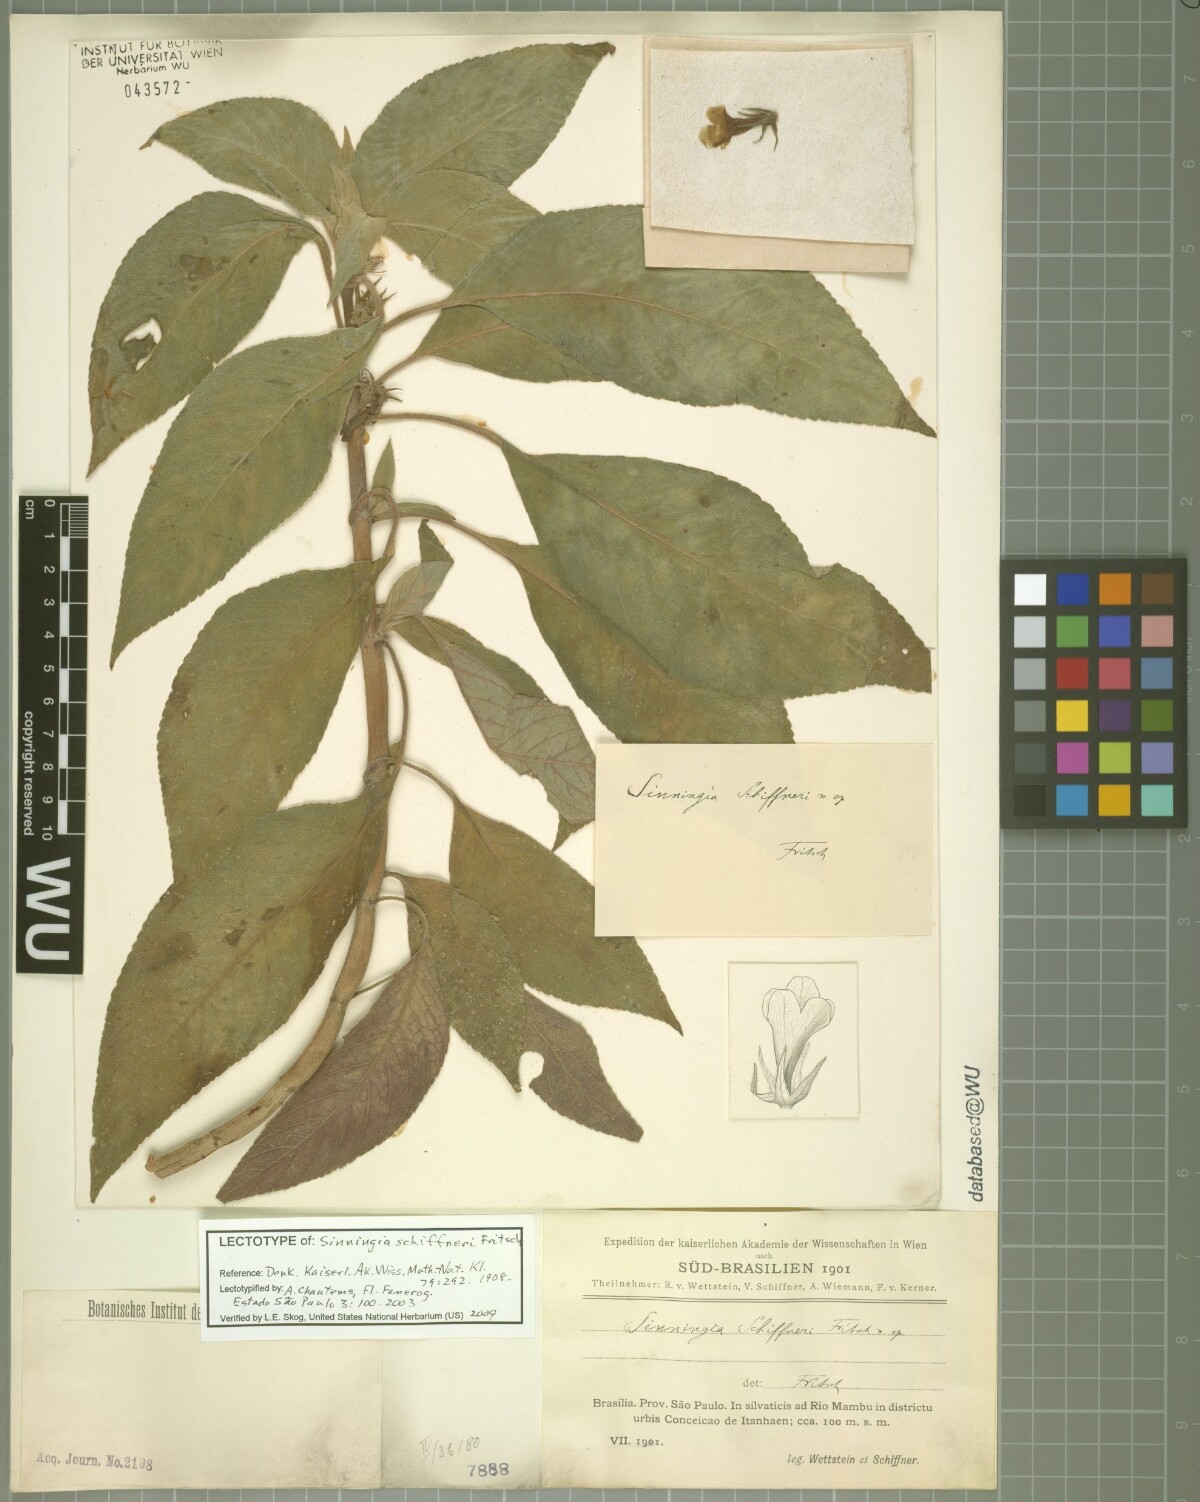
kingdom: Plantae
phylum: Tracheophyta
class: Magnoliopsida
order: Lamiales
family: Gesneriaceae
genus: Sinningia
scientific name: Sinningia schiffneri
